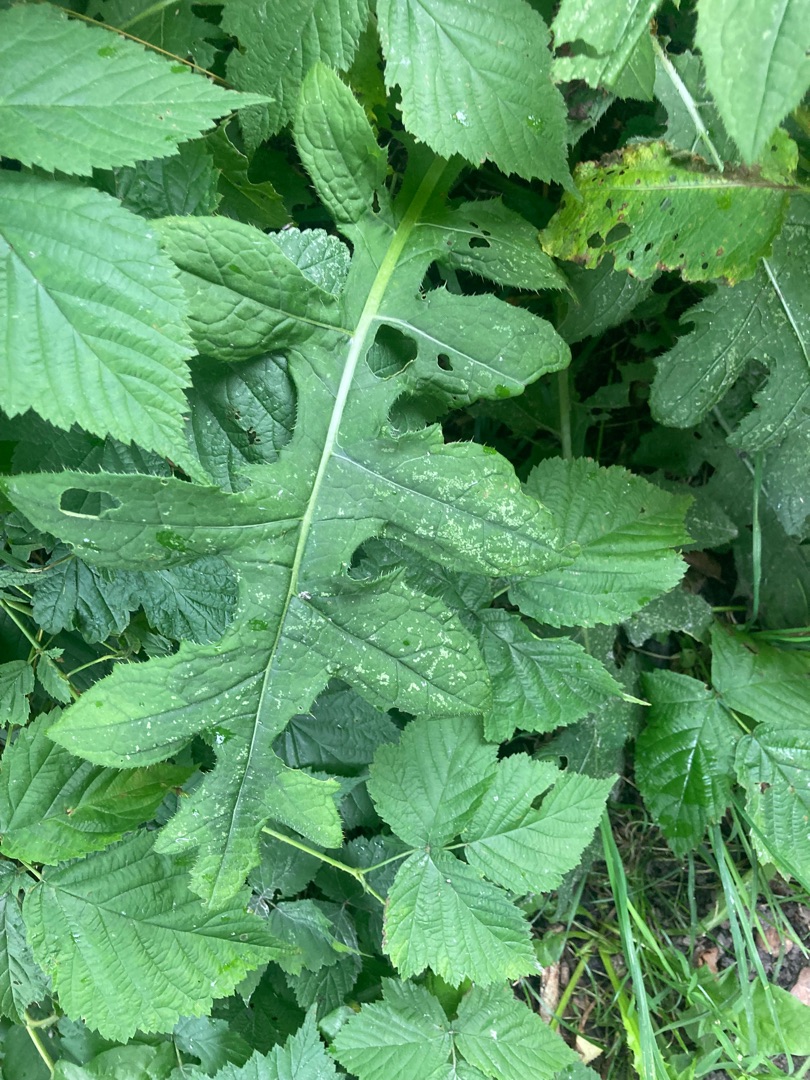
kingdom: Plantae
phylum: Tracheophyta
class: Magnoliopsida
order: Asterales
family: Asteraceae
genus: Cirsium
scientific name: Cirsium oleraceum
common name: Kål-tidsel
